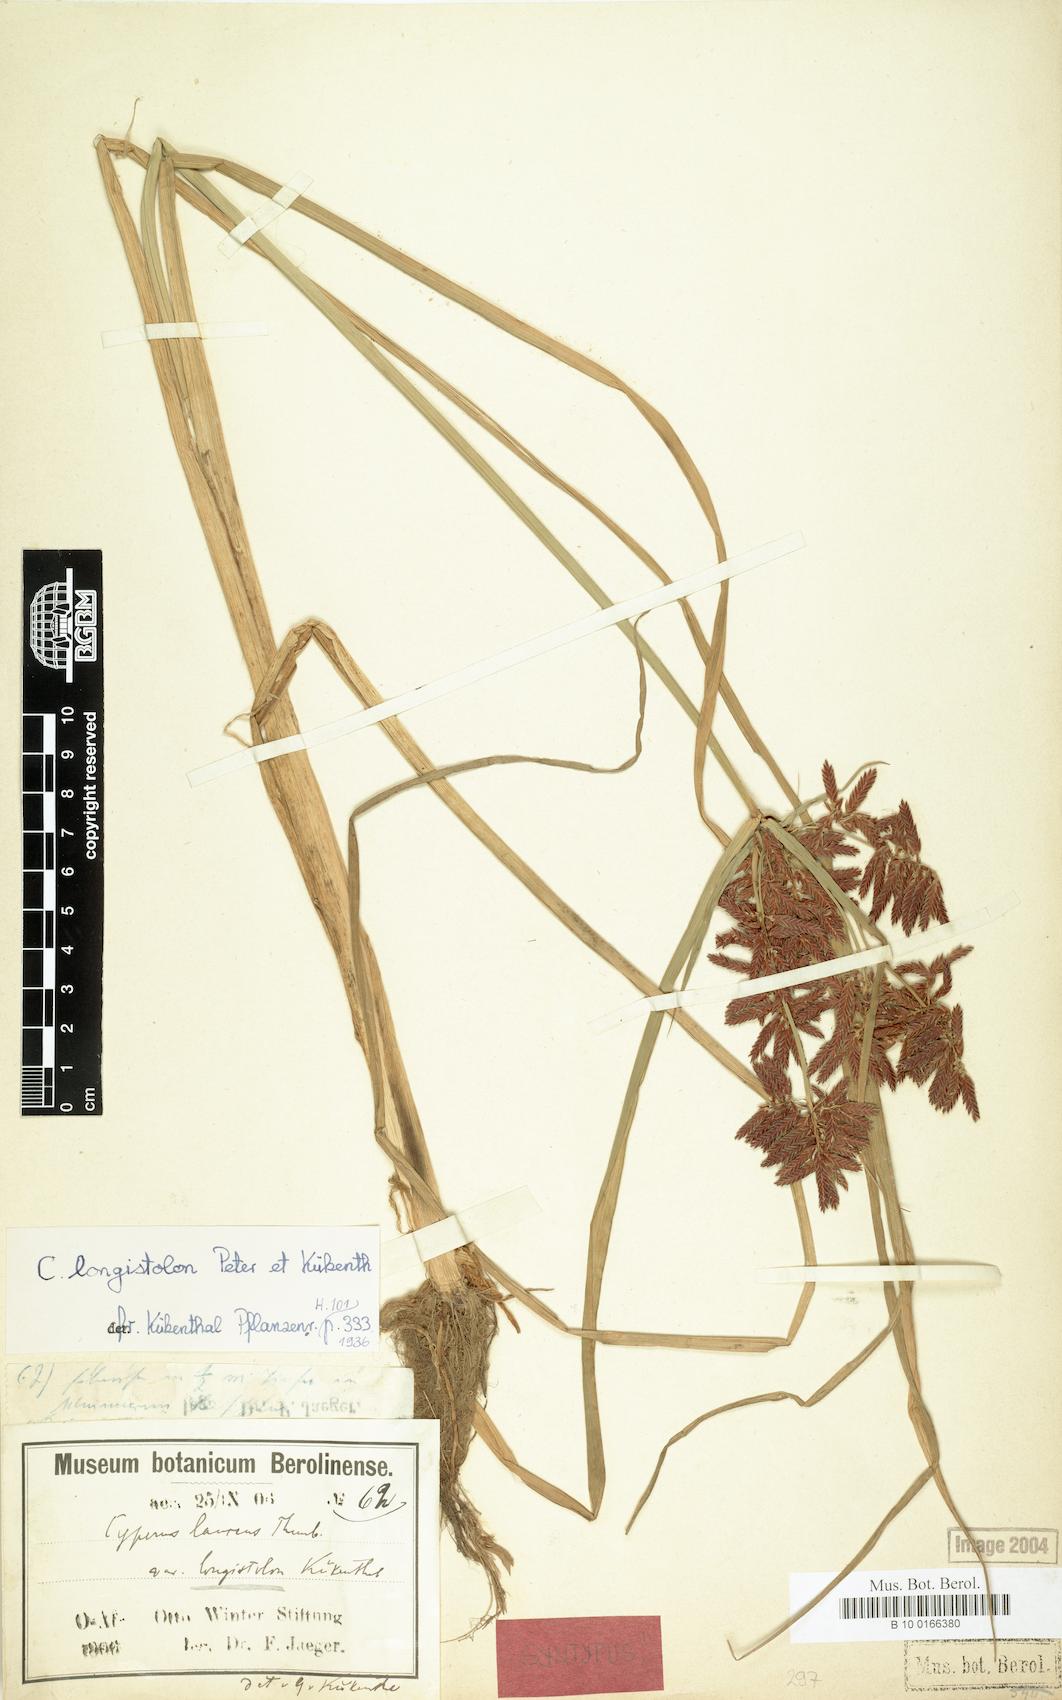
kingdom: Plantae
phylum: Tracheophyta
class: Liliopsida
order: Poales
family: Cyperaceae
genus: Cyperus
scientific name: Cyperus chrysanthus
